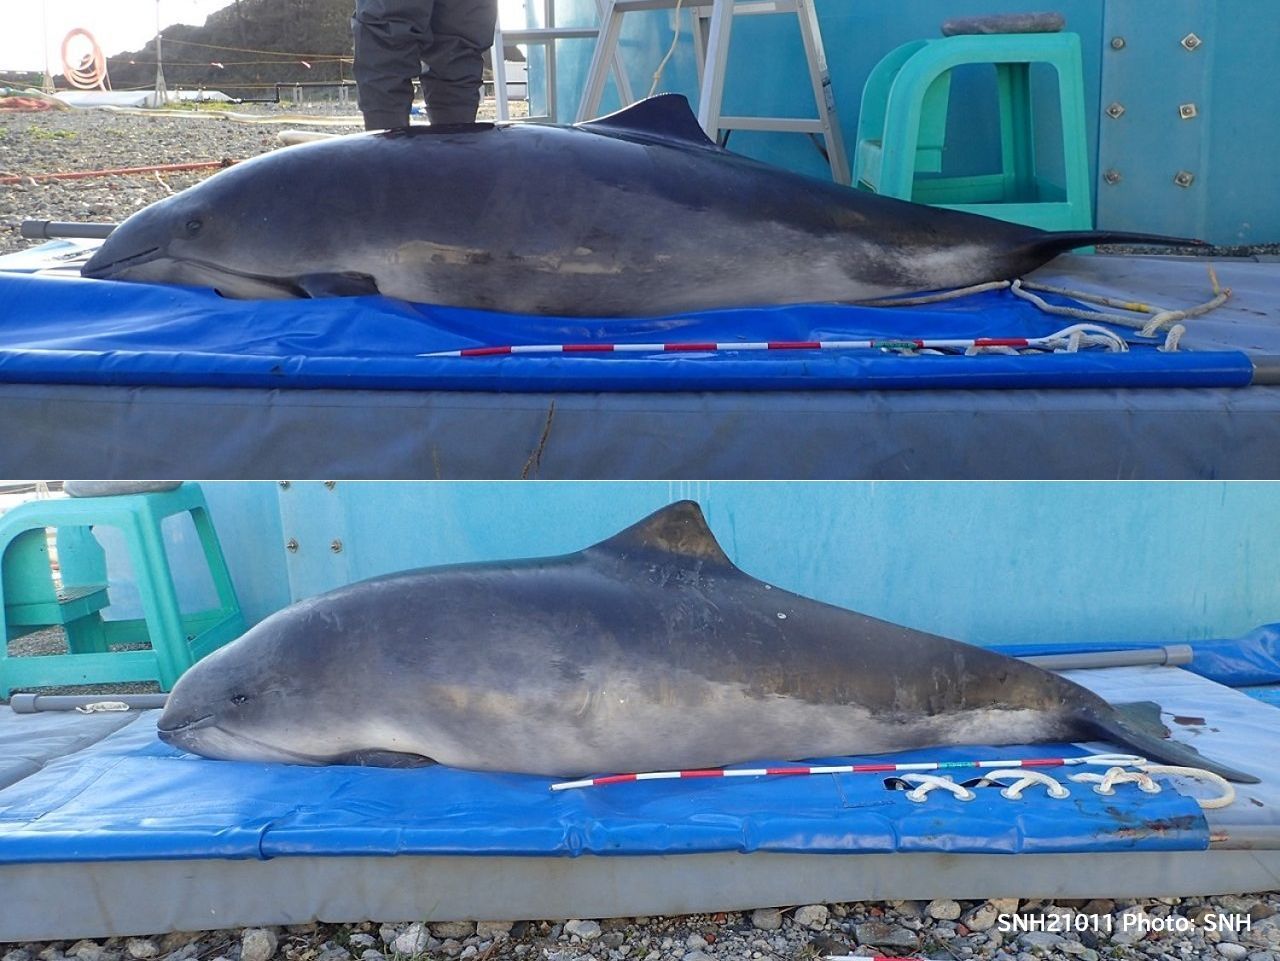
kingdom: Animalia
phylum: Chordata
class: Mammalia
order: Cetacea
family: Phocoenidae
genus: Phocoena
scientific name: Phocoena phocoena
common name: Harbour porpoise
